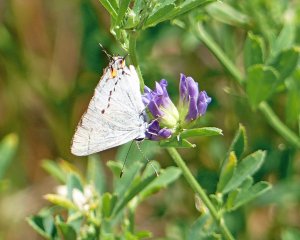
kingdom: Animalia
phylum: Arthropoda
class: Insecta
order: Lepidoptera
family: Lycaenidae
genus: Strymon
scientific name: Strymon melinus
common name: Gray Hairstreak
